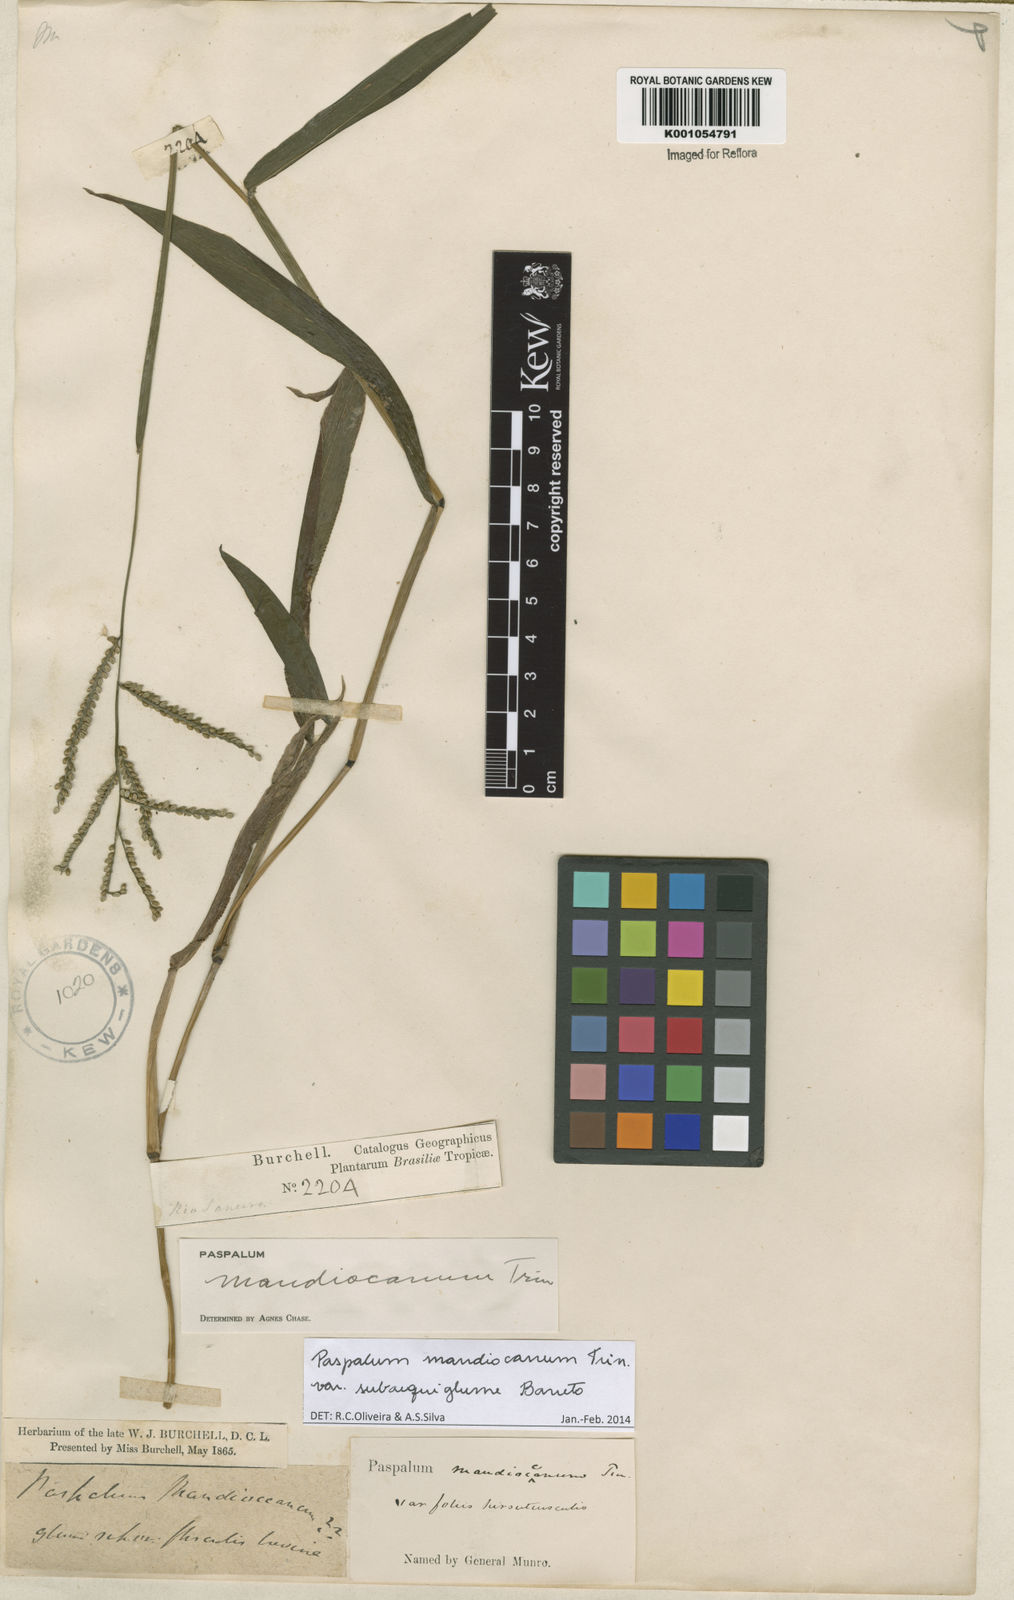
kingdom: Plantae
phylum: Tracheophyta
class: Liliopsida
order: Poales
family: Poaceae
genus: Paspalum
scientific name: Paspalum mandiocanum
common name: Paspalum
